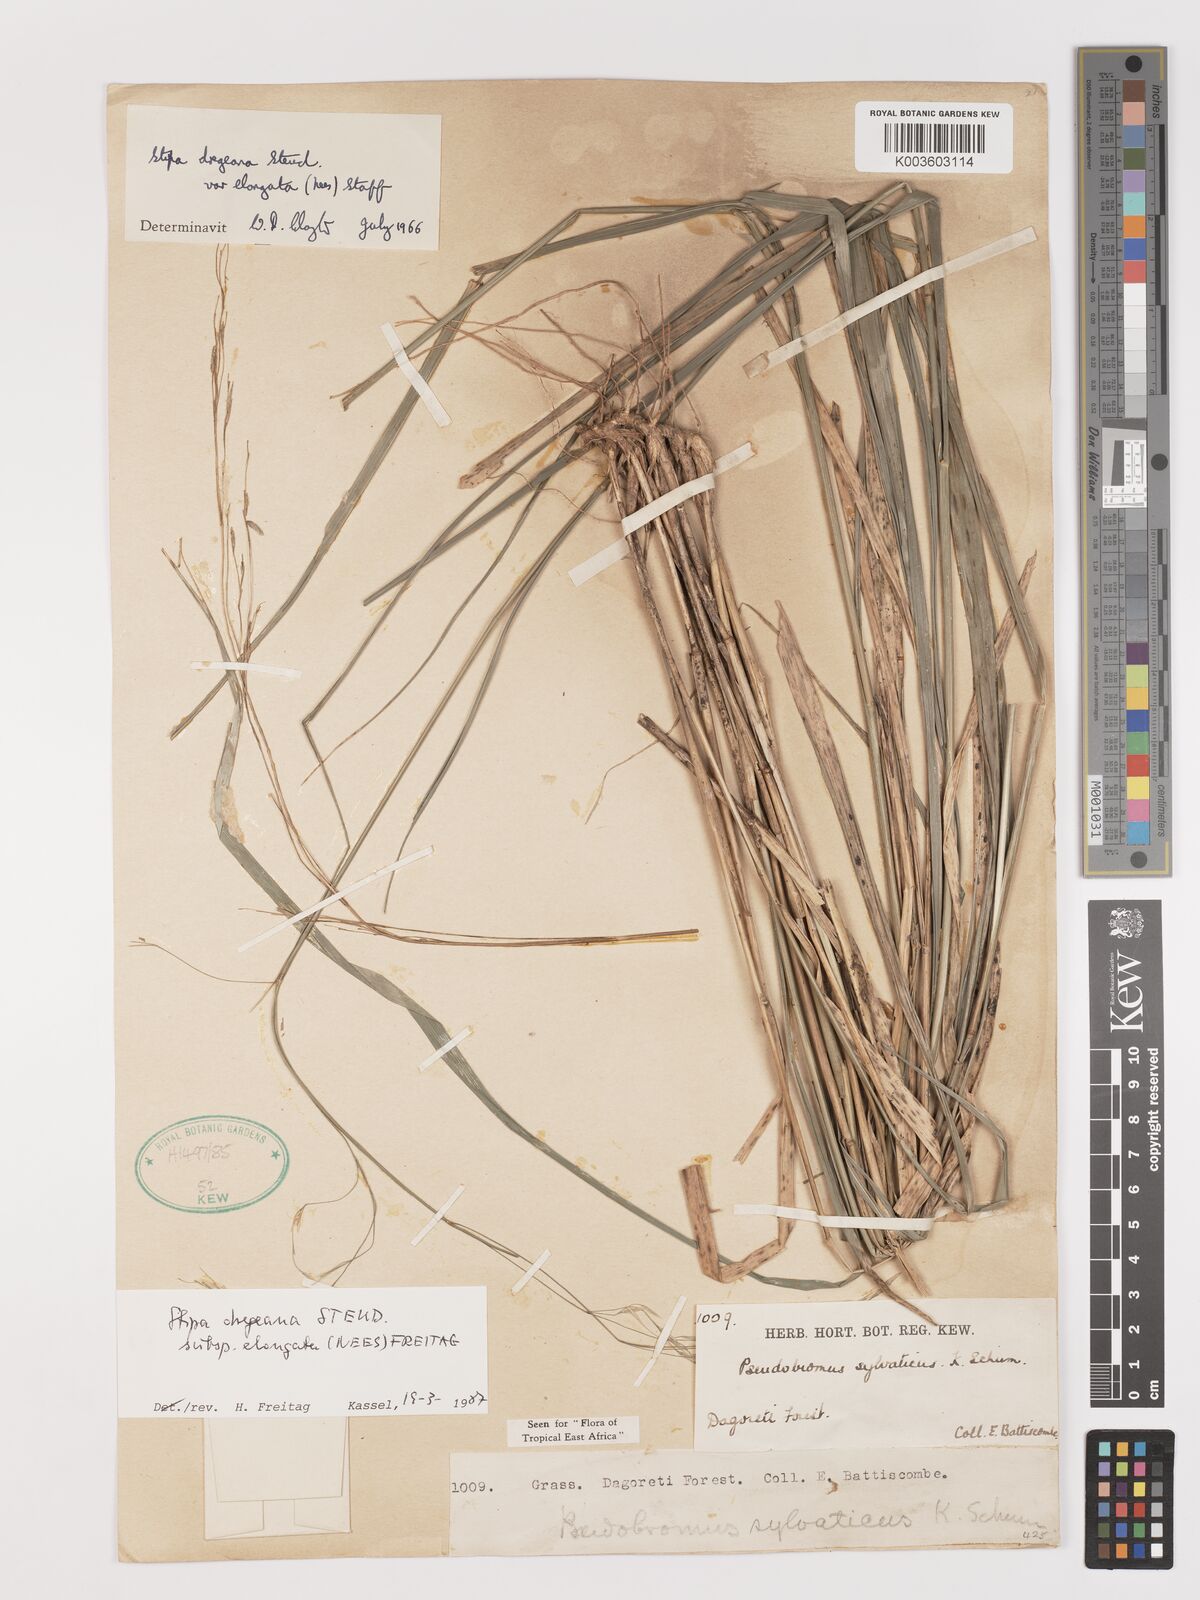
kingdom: Plantae
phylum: Tracheophyta
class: Liliopsida
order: Poales
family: Poaceae
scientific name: Poaceae
